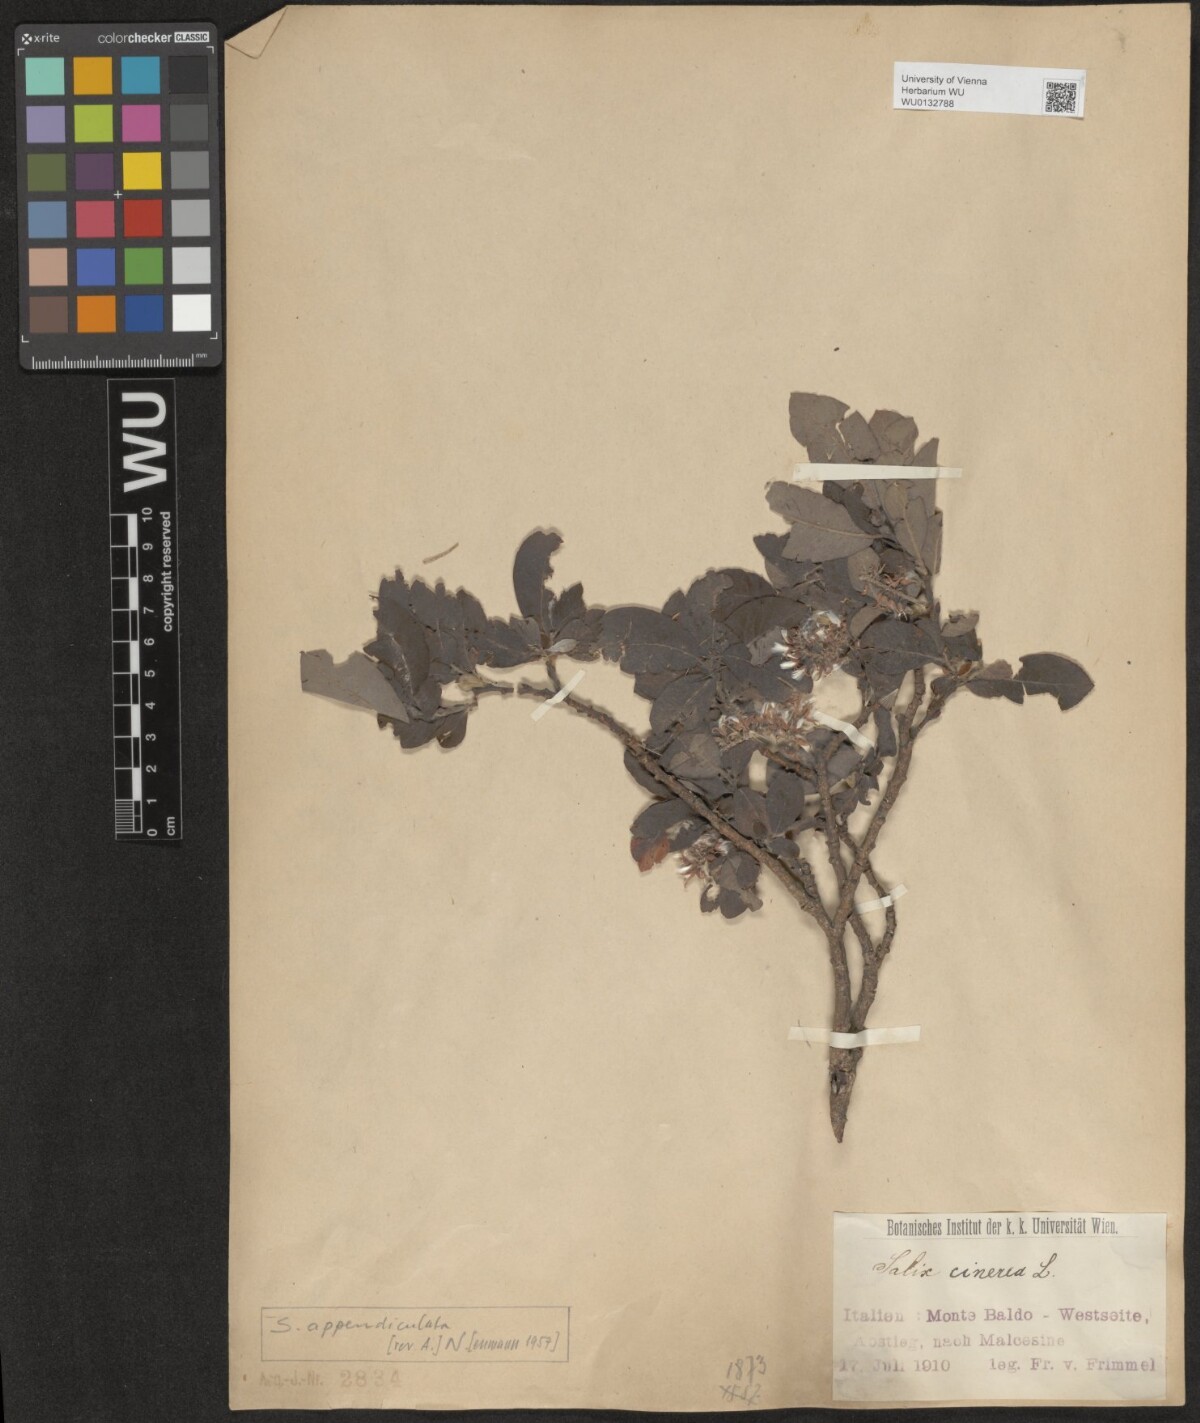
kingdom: Plantae
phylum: Tracheophyta
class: Magnoliopsida
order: Malpighiales
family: Salicaceae
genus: Salix
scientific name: Salix appendiculata
